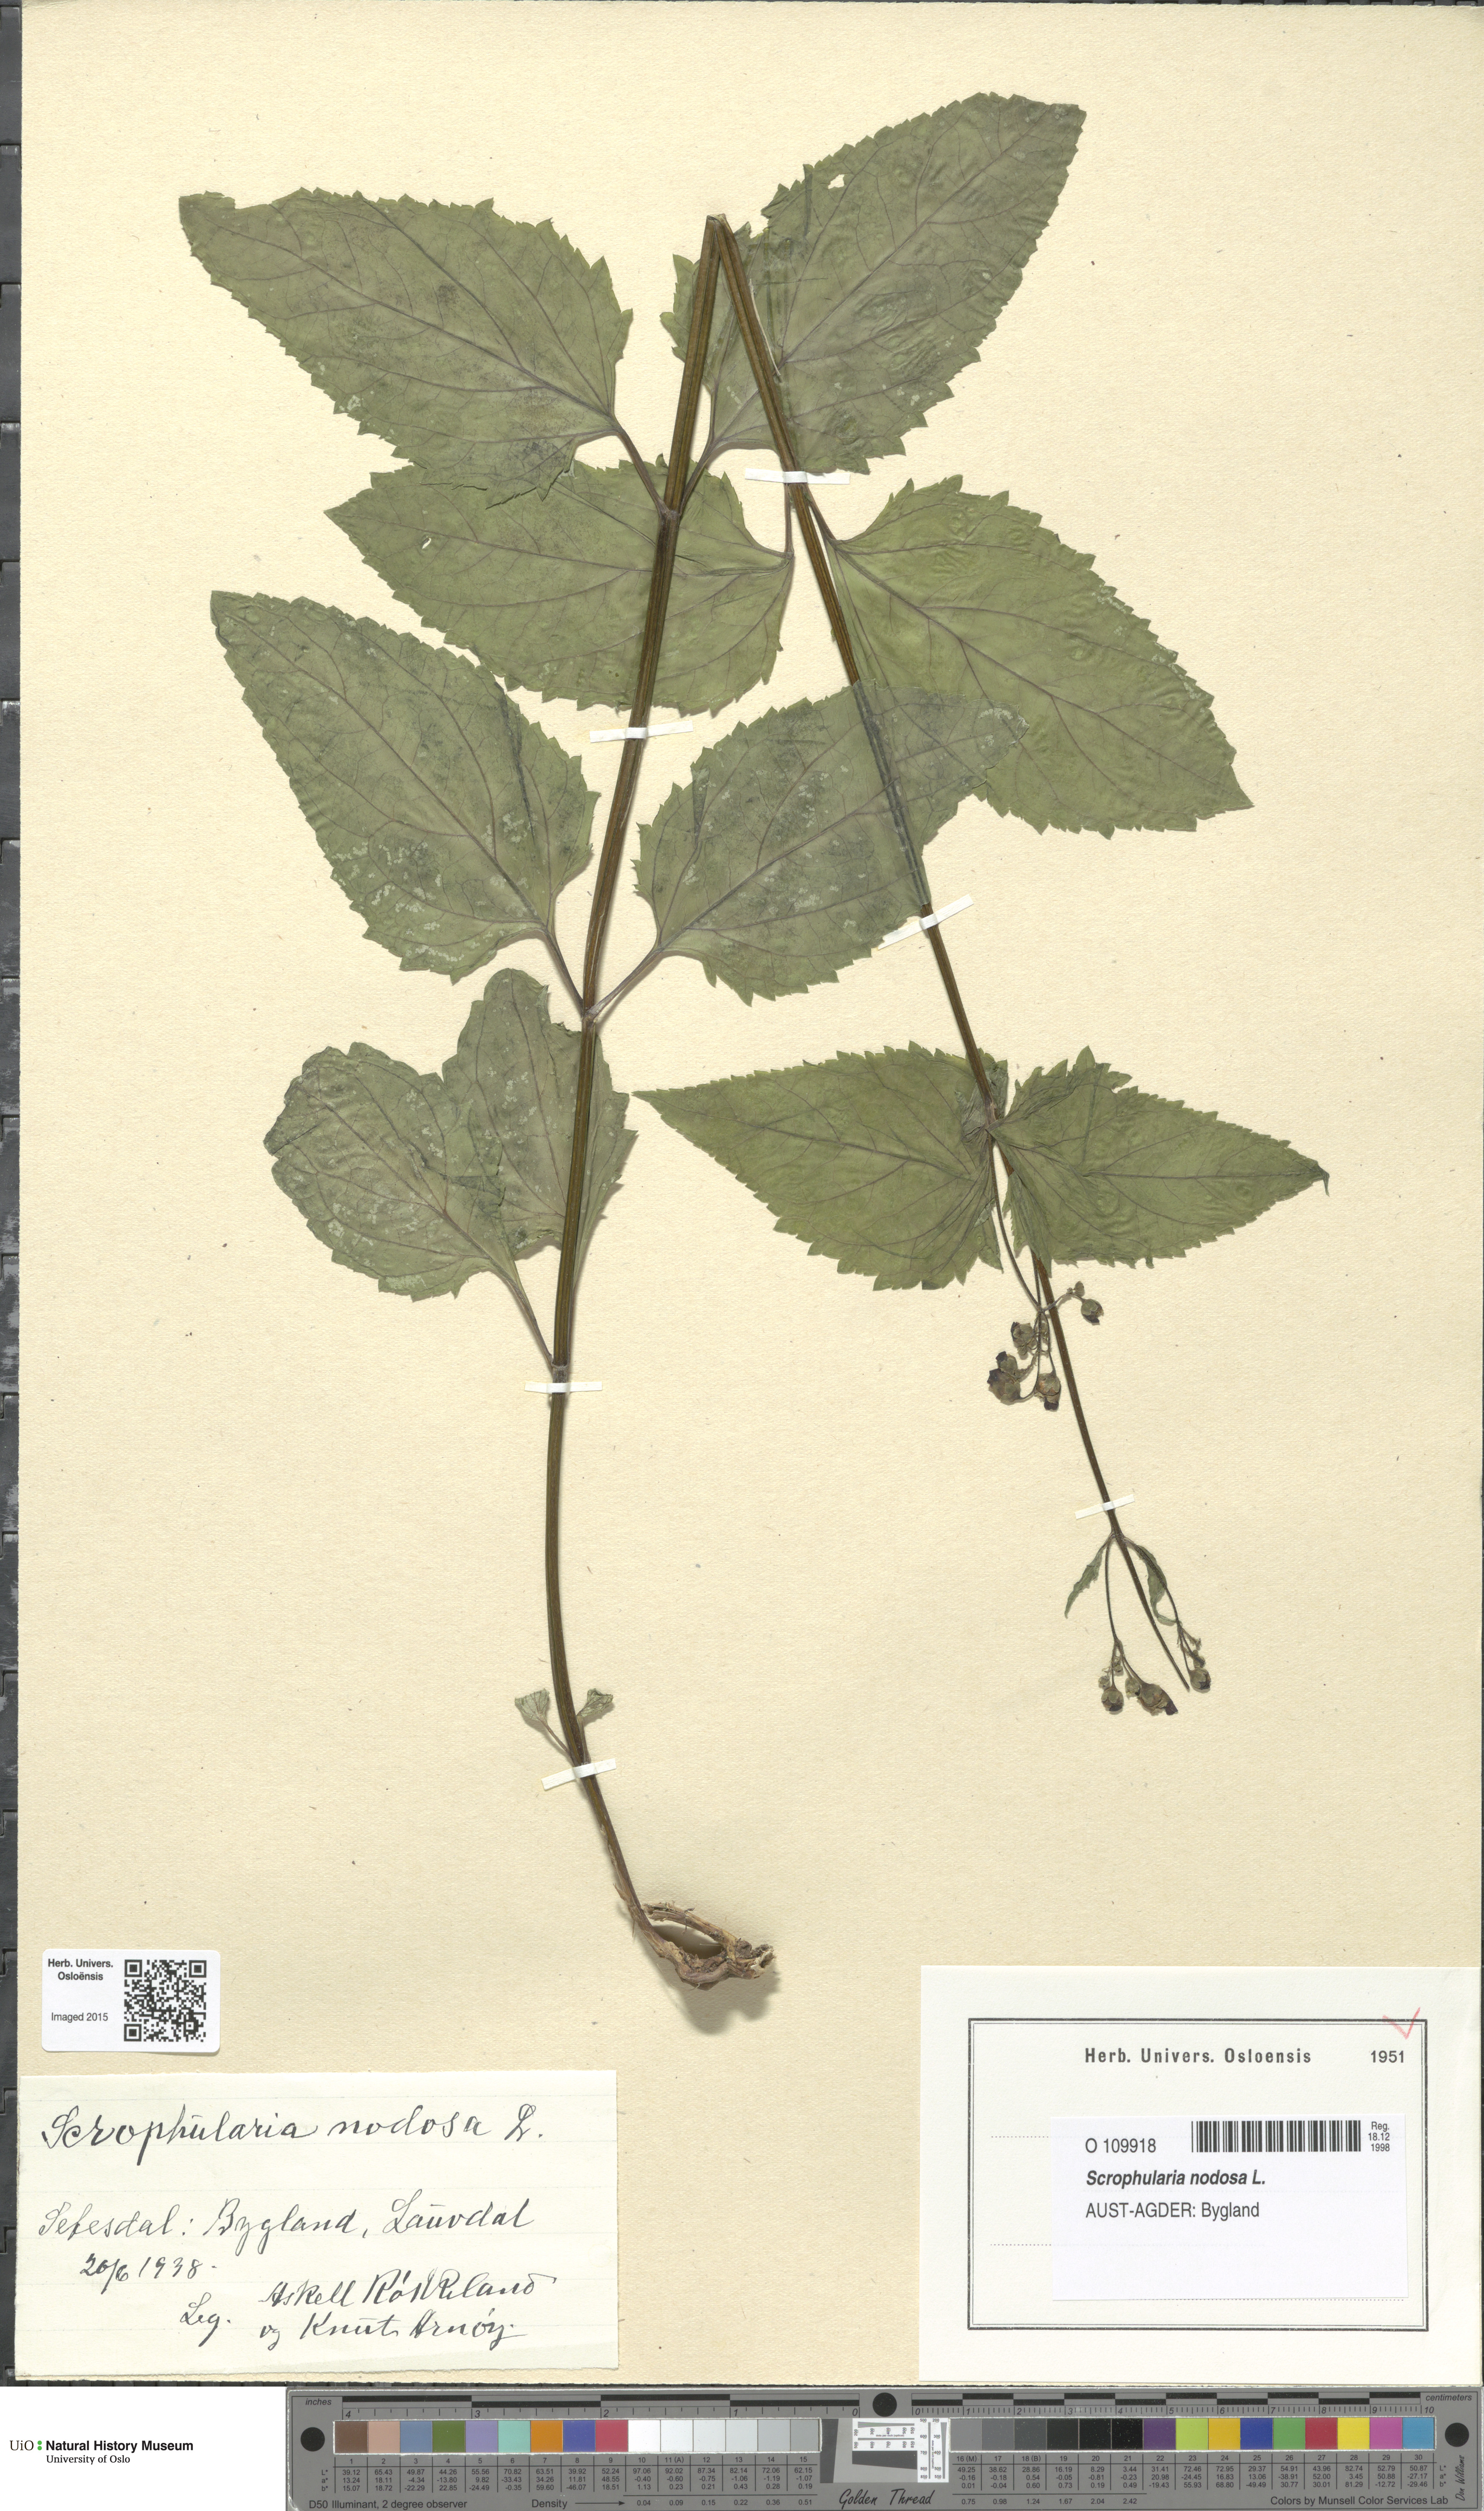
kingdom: Plantae
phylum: Tracheophyta
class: Magnoliopsida
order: Lamiales
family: Scrophulariaceae
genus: Scrophularia
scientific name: Scrophularia nodosa
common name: Common figwort
